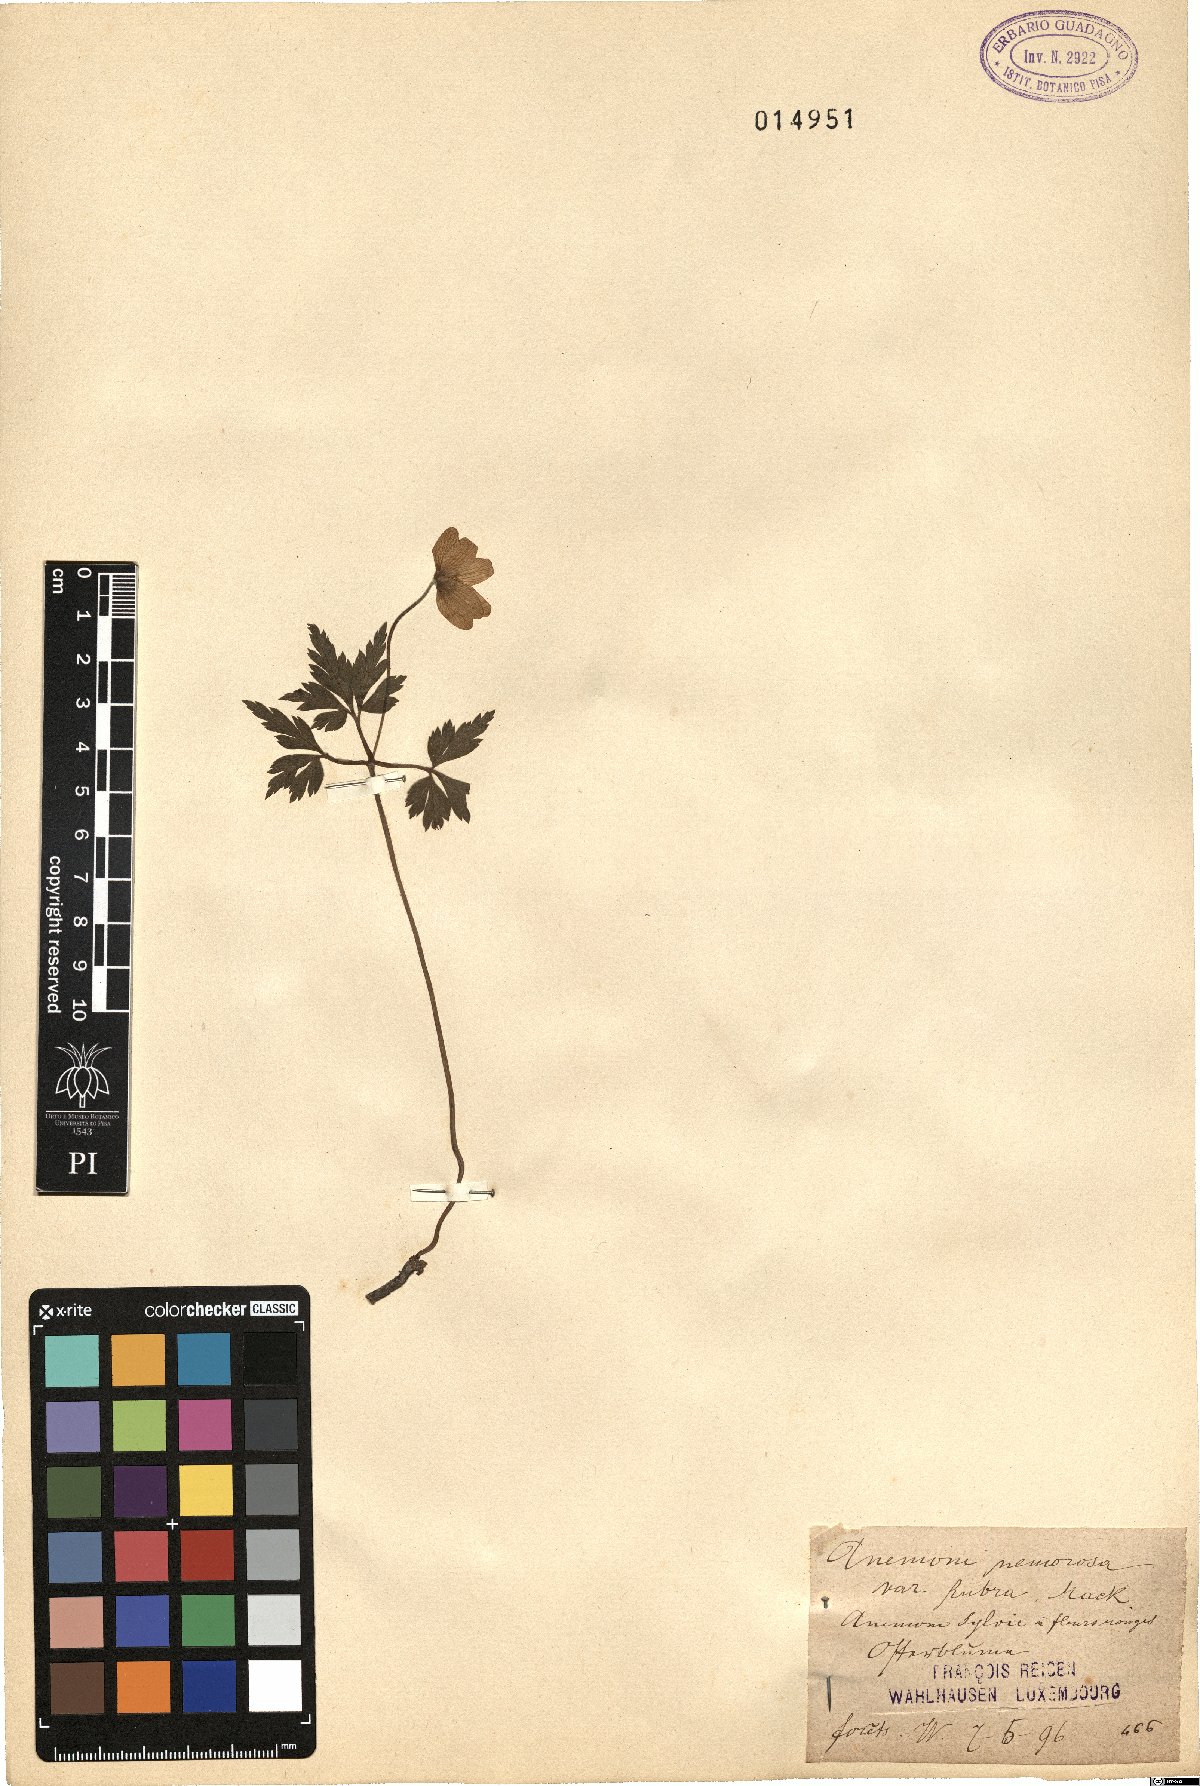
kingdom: Plantae
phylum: Tracheophyta
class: Magnoliopsida
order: Ranunculales
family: Ranunculaceae
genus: Anemone
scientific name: Anemone nemorosa
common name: Wood anemone
